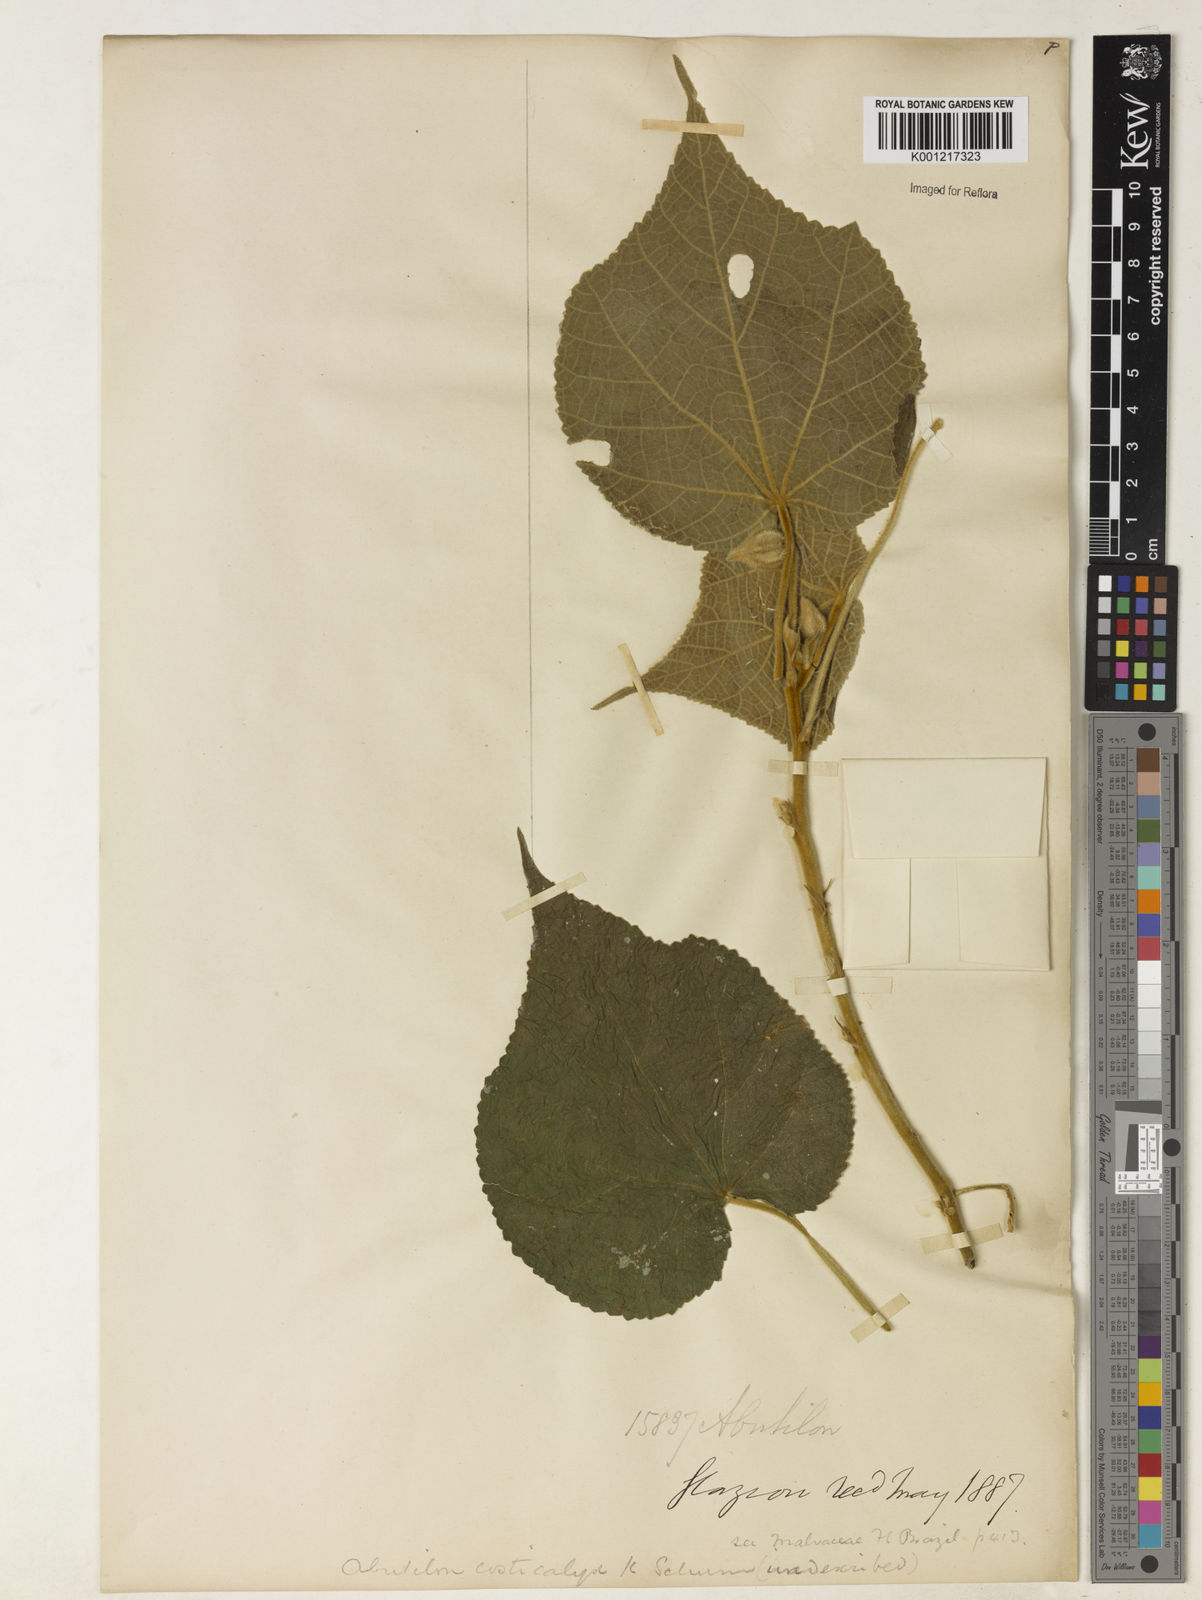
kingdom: Plantae
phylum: Tracheophyta
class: Magnoliopsida
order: Malvales
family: Malvaceae
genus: Callianthe
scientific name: Callianthe scabrida
